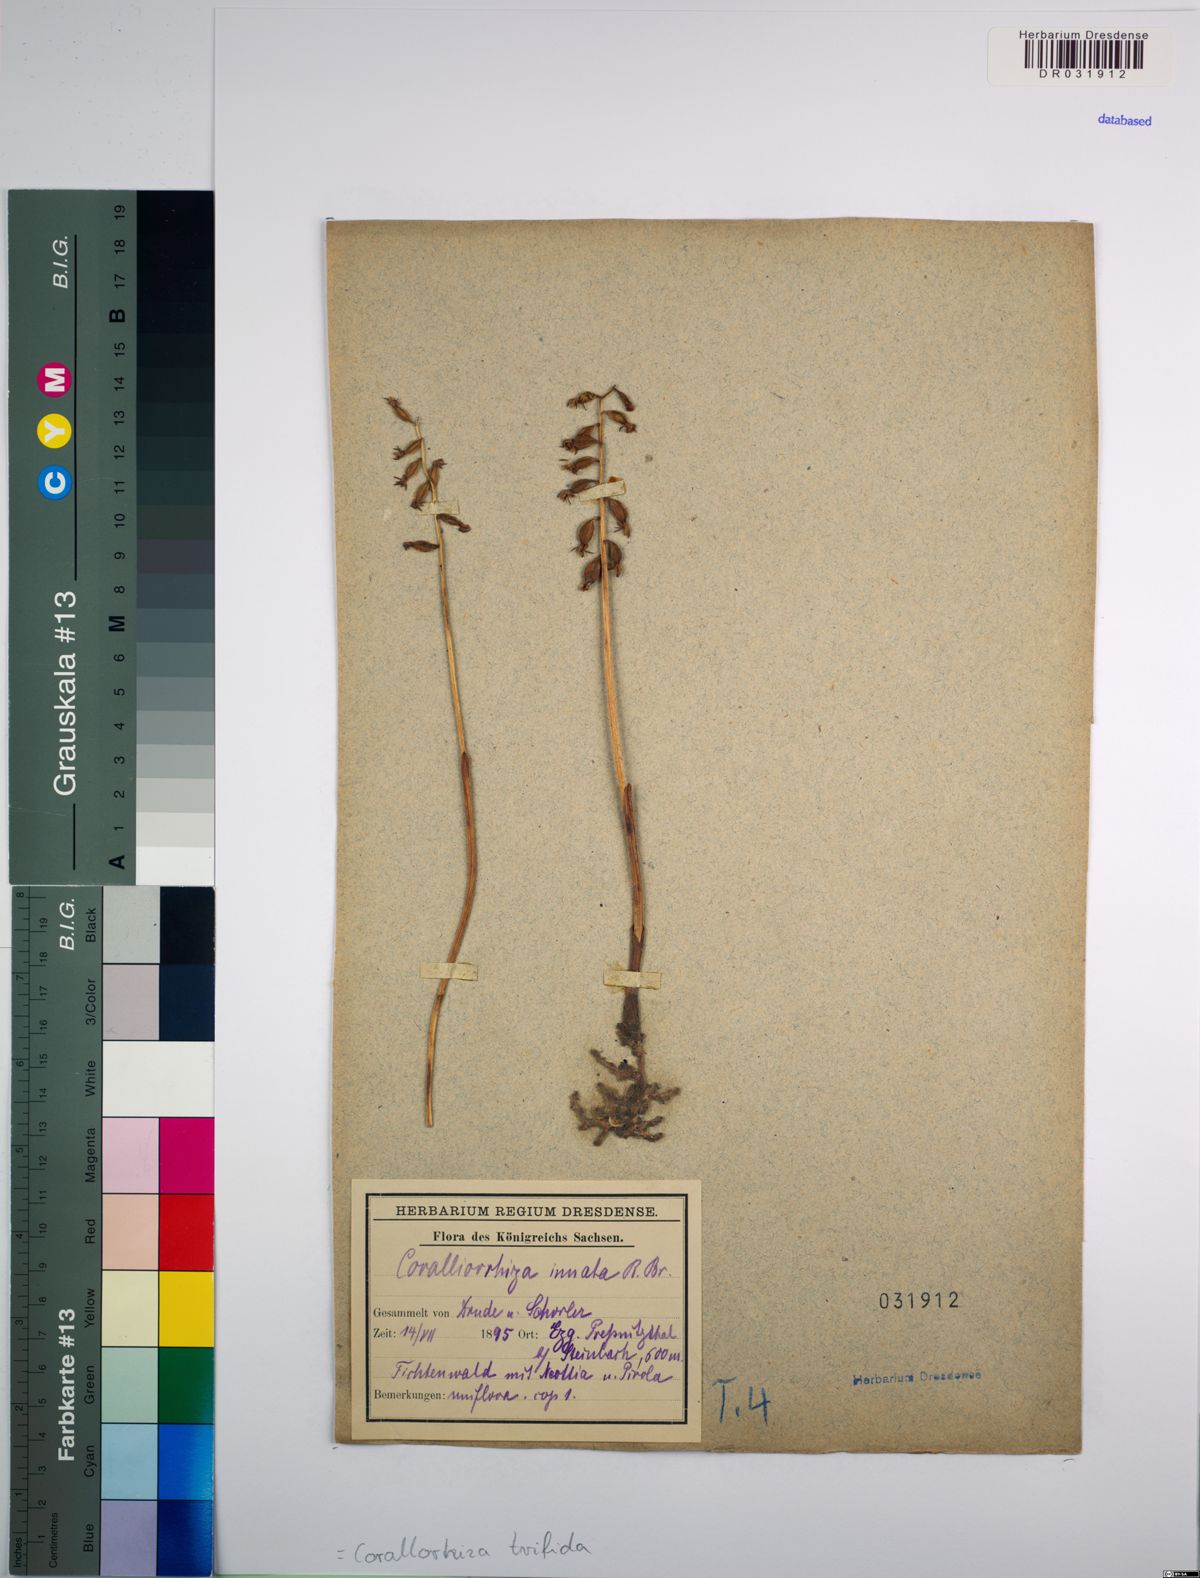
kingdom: Plantae
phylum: Tracheophyta
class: Liliopsida
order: Asparagales
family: Orchidaceae
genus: Corallorhiza
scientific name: Corallorhiza trifida
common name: Yellow coralroot
